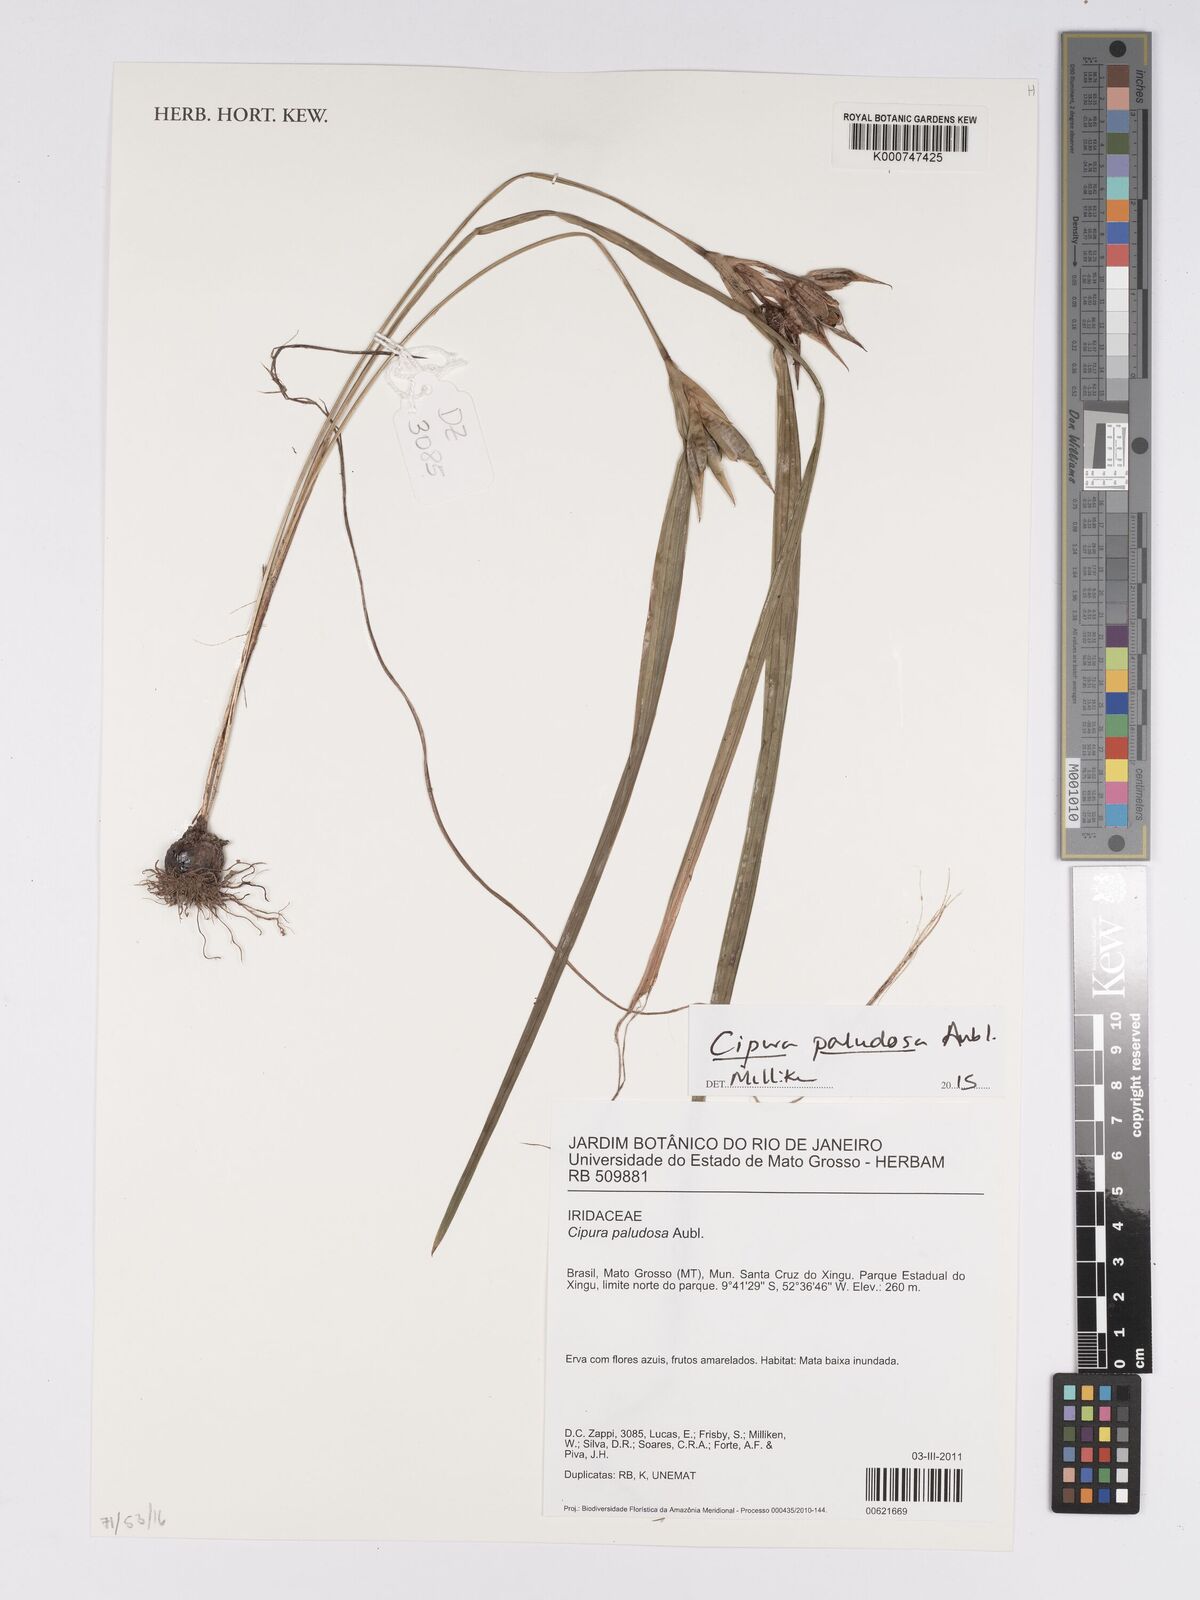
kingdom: Plantae
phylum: Tracheophyta
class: Liliopsida
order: Asparagales
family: Iridaceae
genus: Cipura
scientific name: Cipura paludosa
